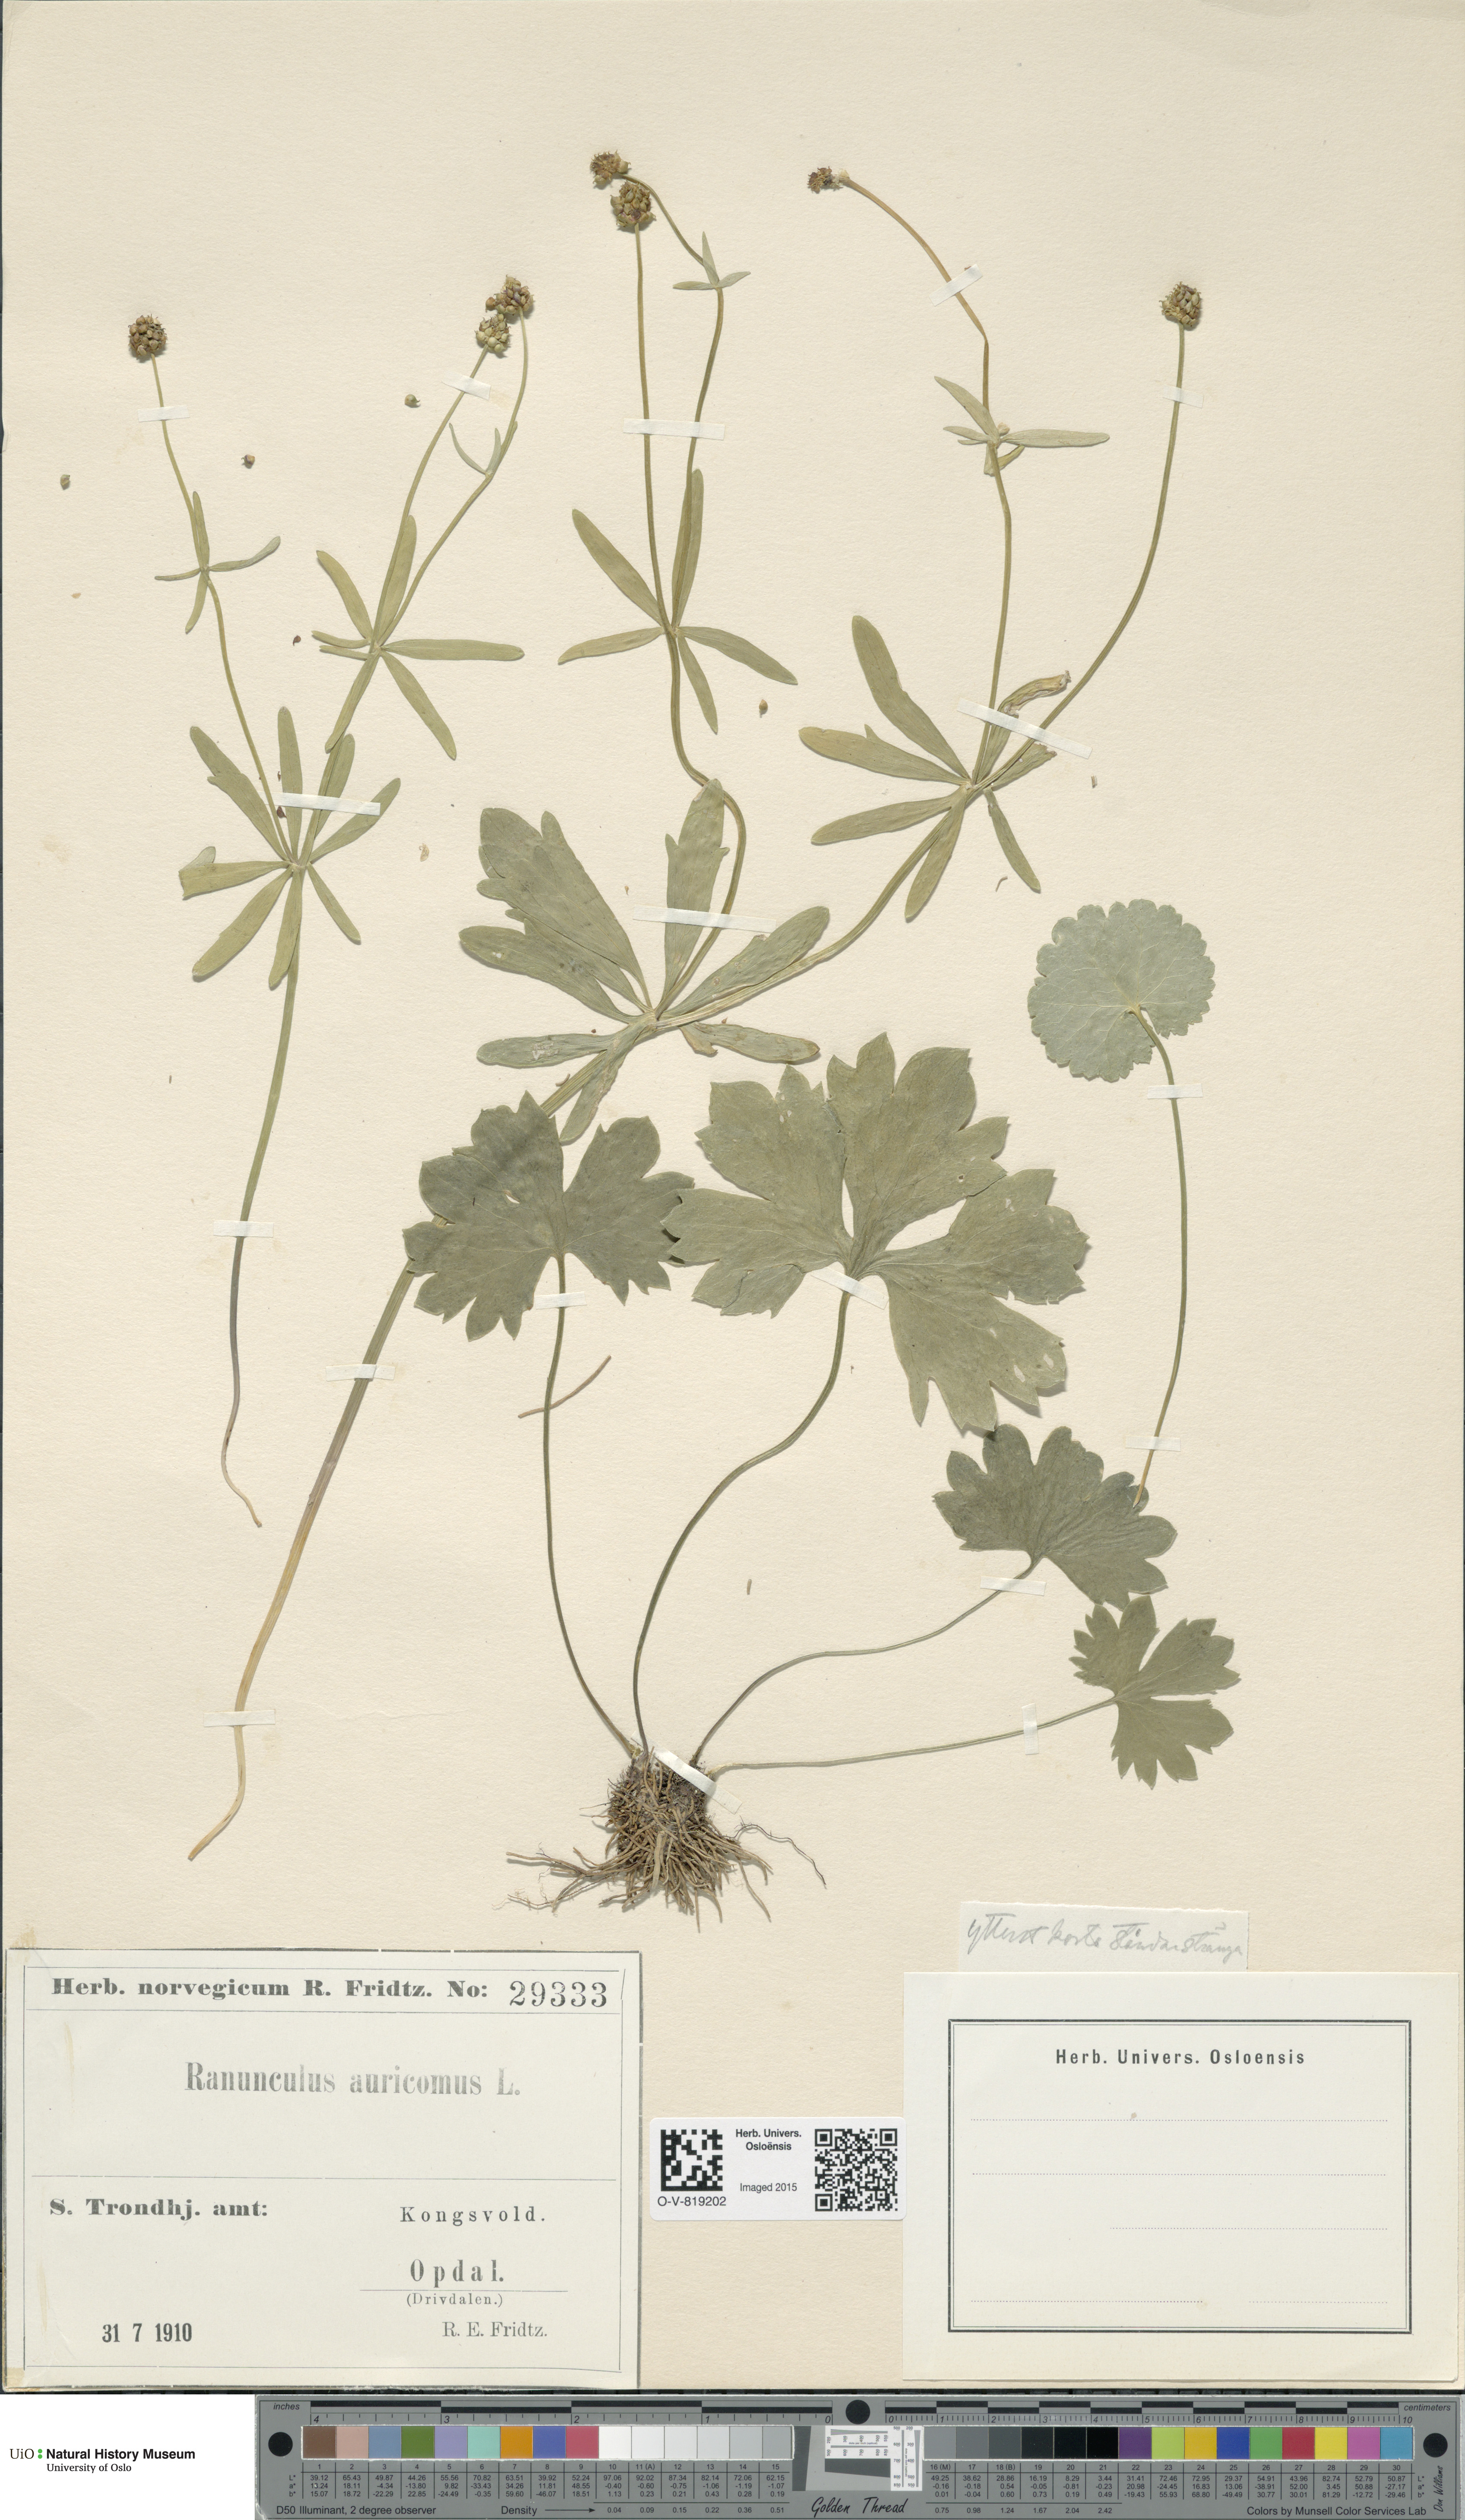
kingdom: Plantae
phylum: Tracheophyta
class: Magnoliopsida
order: Ranunculales
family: Ranunculaceae
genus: Ranunculus
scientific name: Ranunculus auricomus
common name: Goldilocks buttercup
